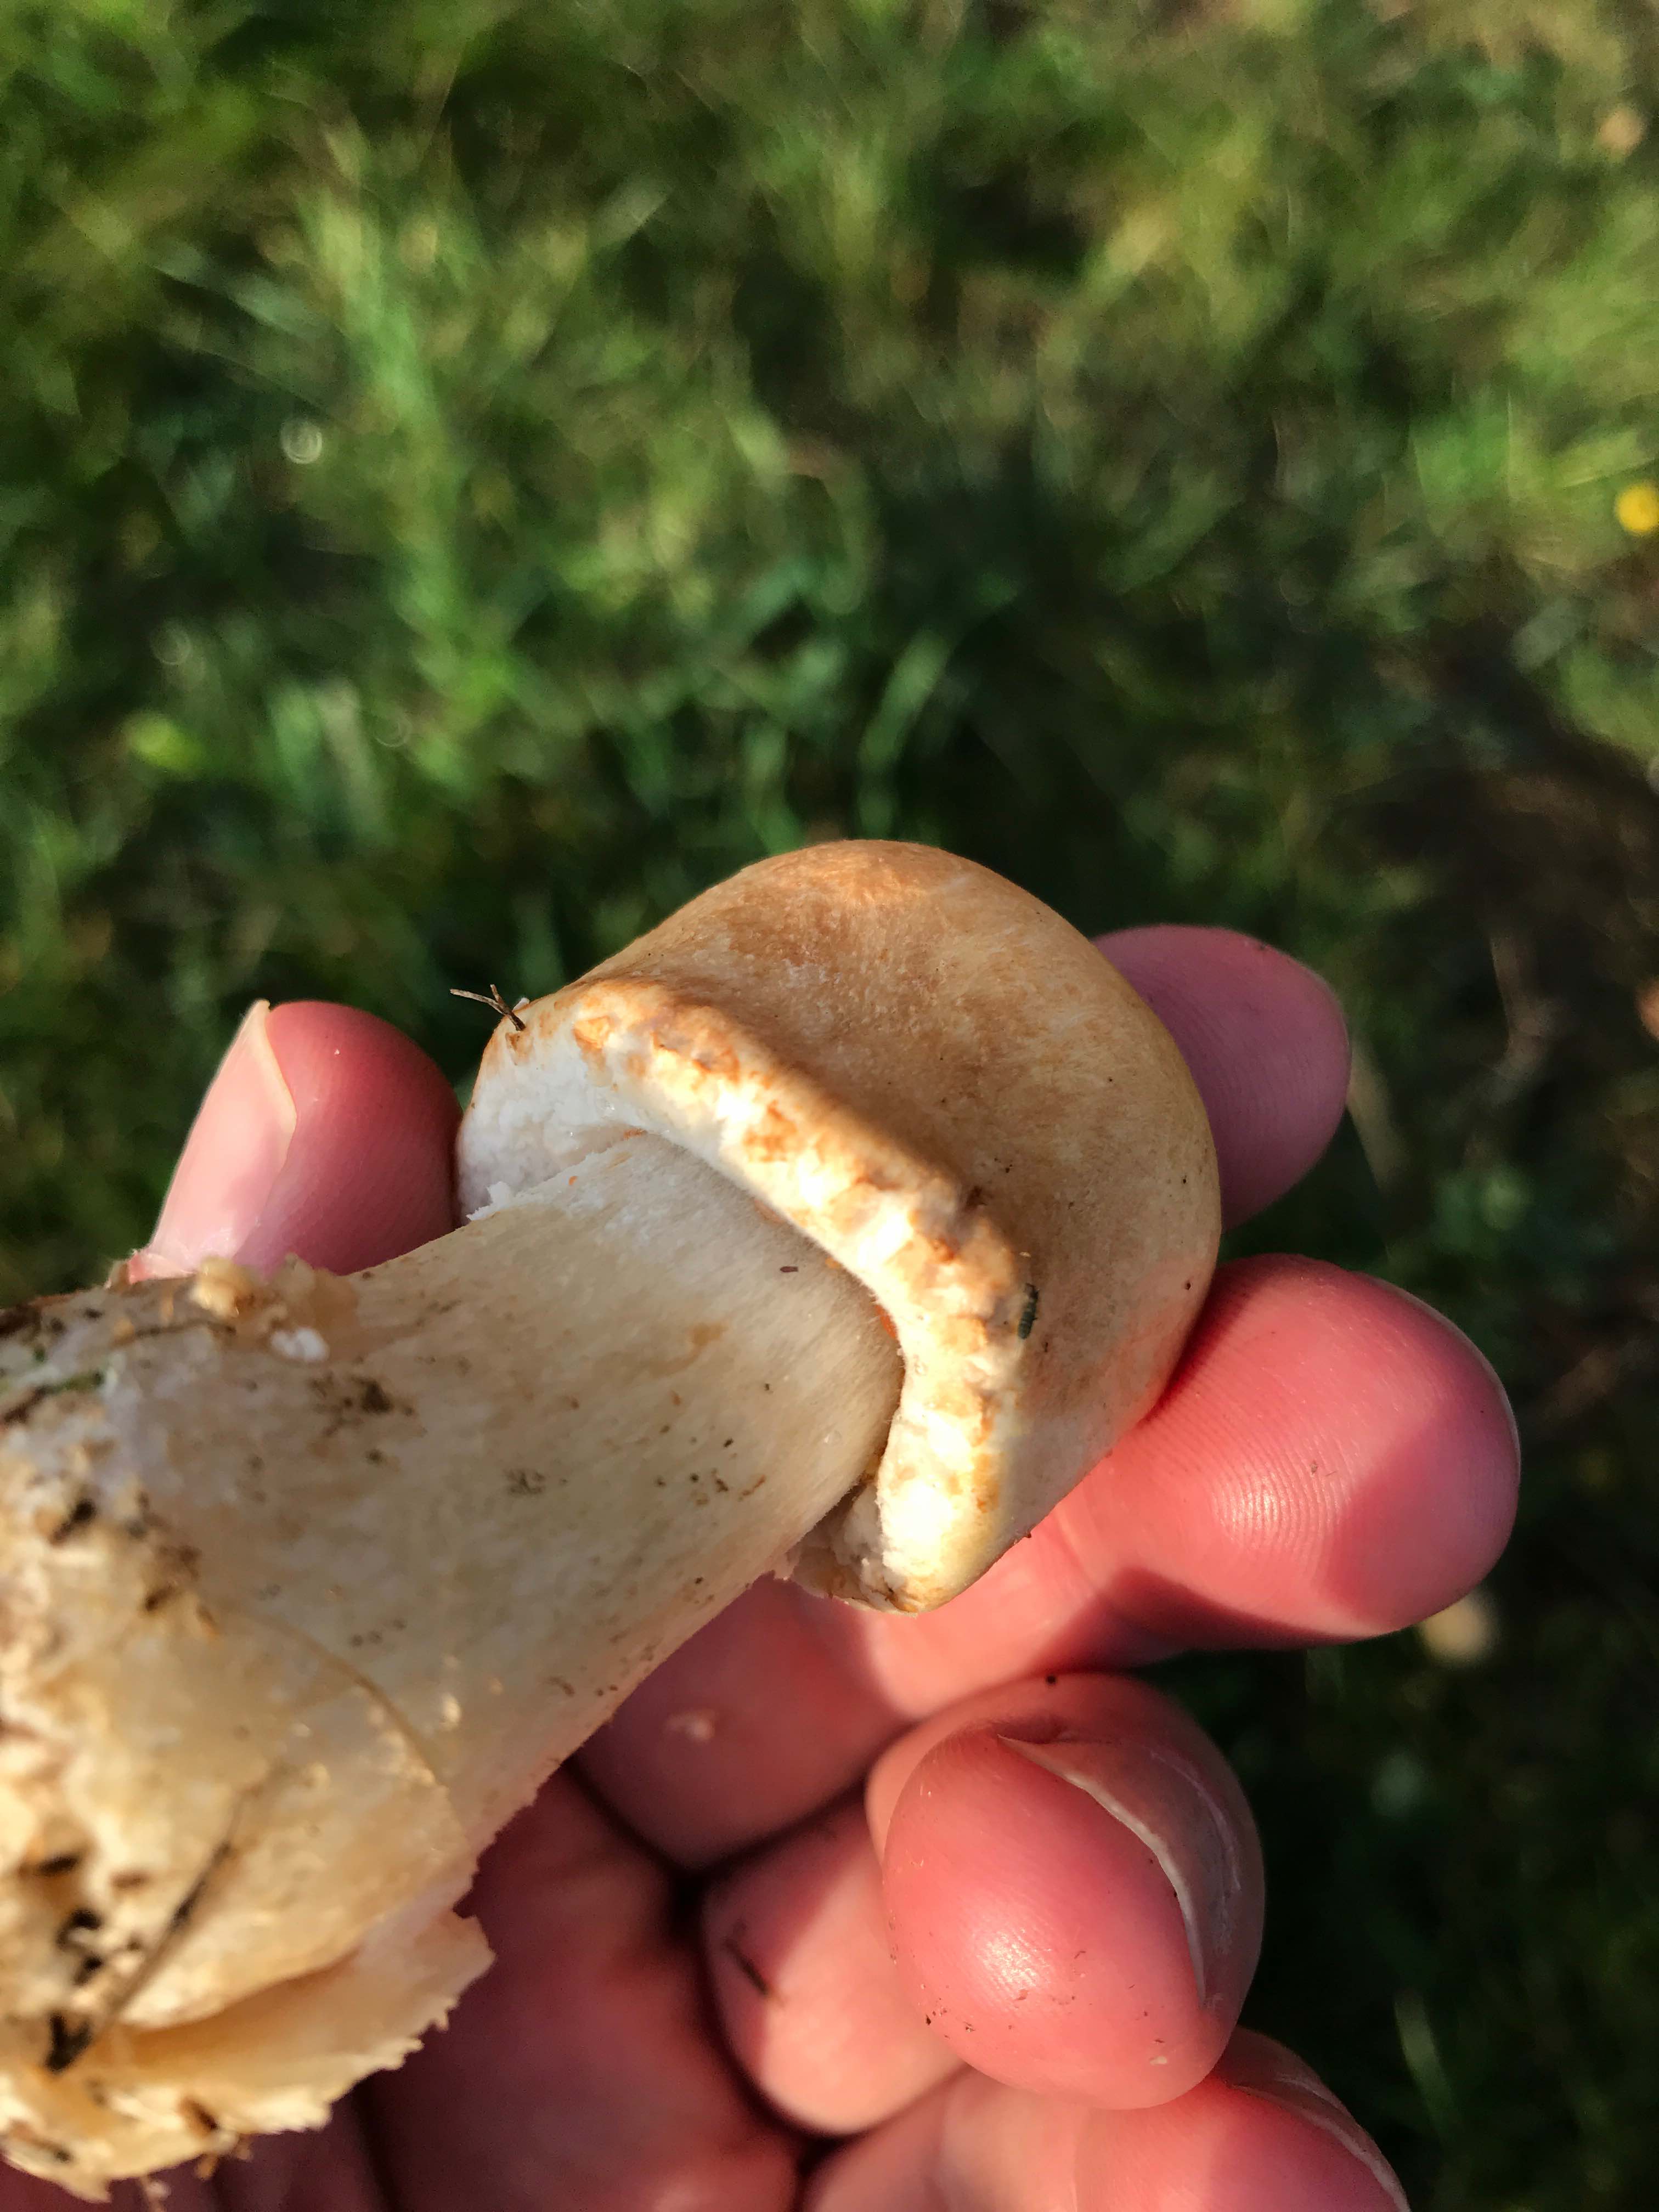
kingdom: Fungi
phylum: Basidiomycota
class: Agaricomycetes
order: Agaricales
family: Agaricaceae
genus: Agaricus
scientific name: Agaricus
